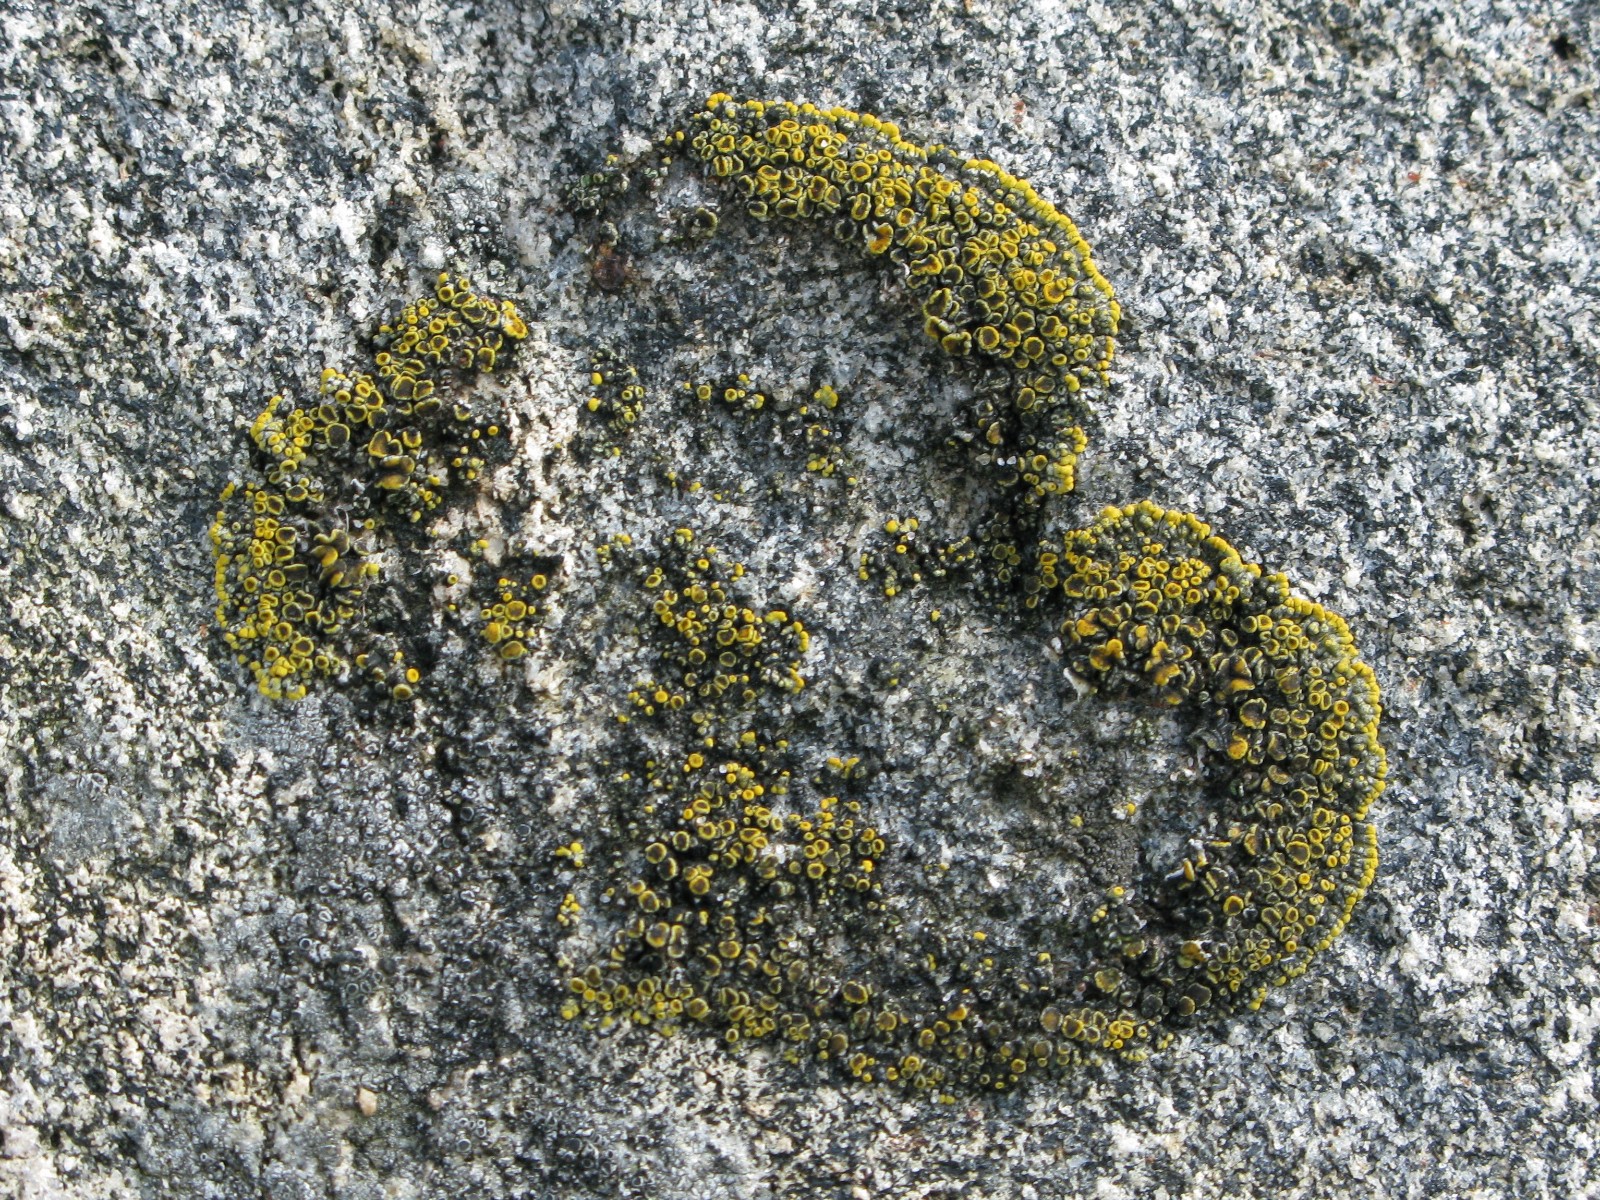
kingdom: Fungi
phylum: Ascomycota
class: Lecanoromycetes
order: Teloschistales
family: Teloschistaceae
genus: Athallia
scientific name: Athallia scopularis
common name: klippe-orangelav
